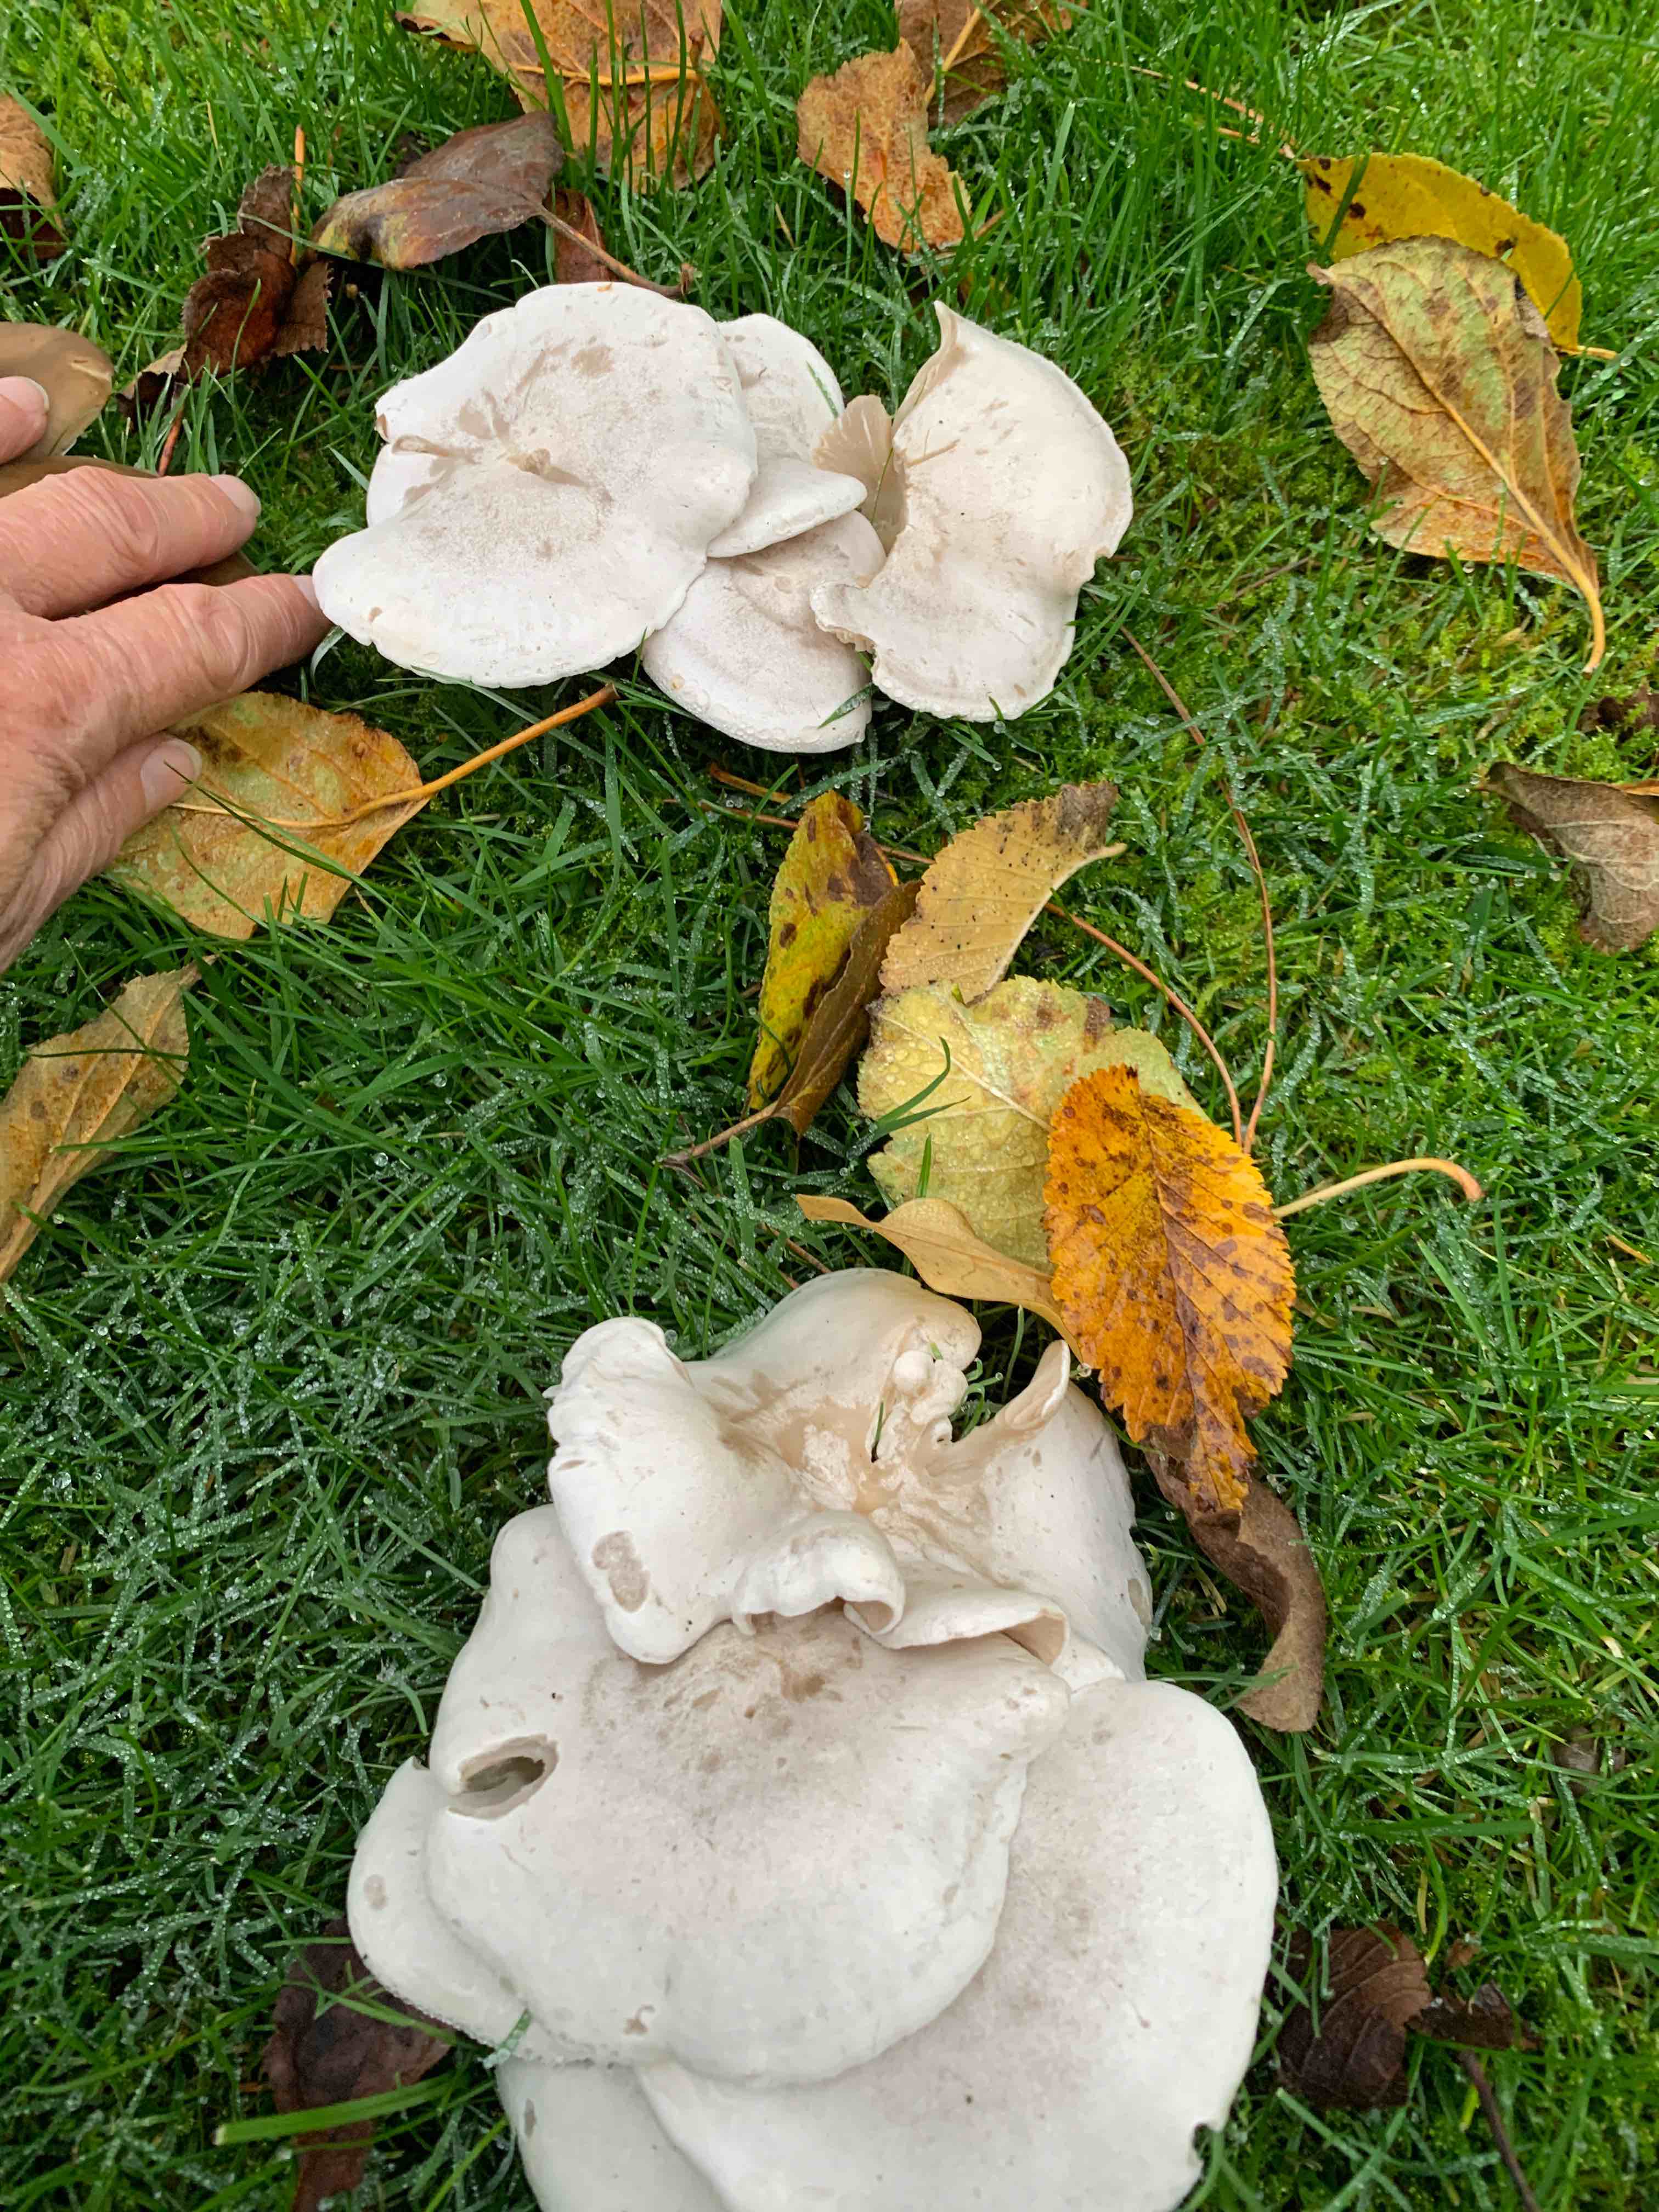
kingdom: Fungi
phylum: Basidiomycota
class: Agaricomycetes
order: Agaricales
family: Tricholomataceae
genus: Leucocybe
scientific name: Leucocybe connata
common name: knippe-tragthat
